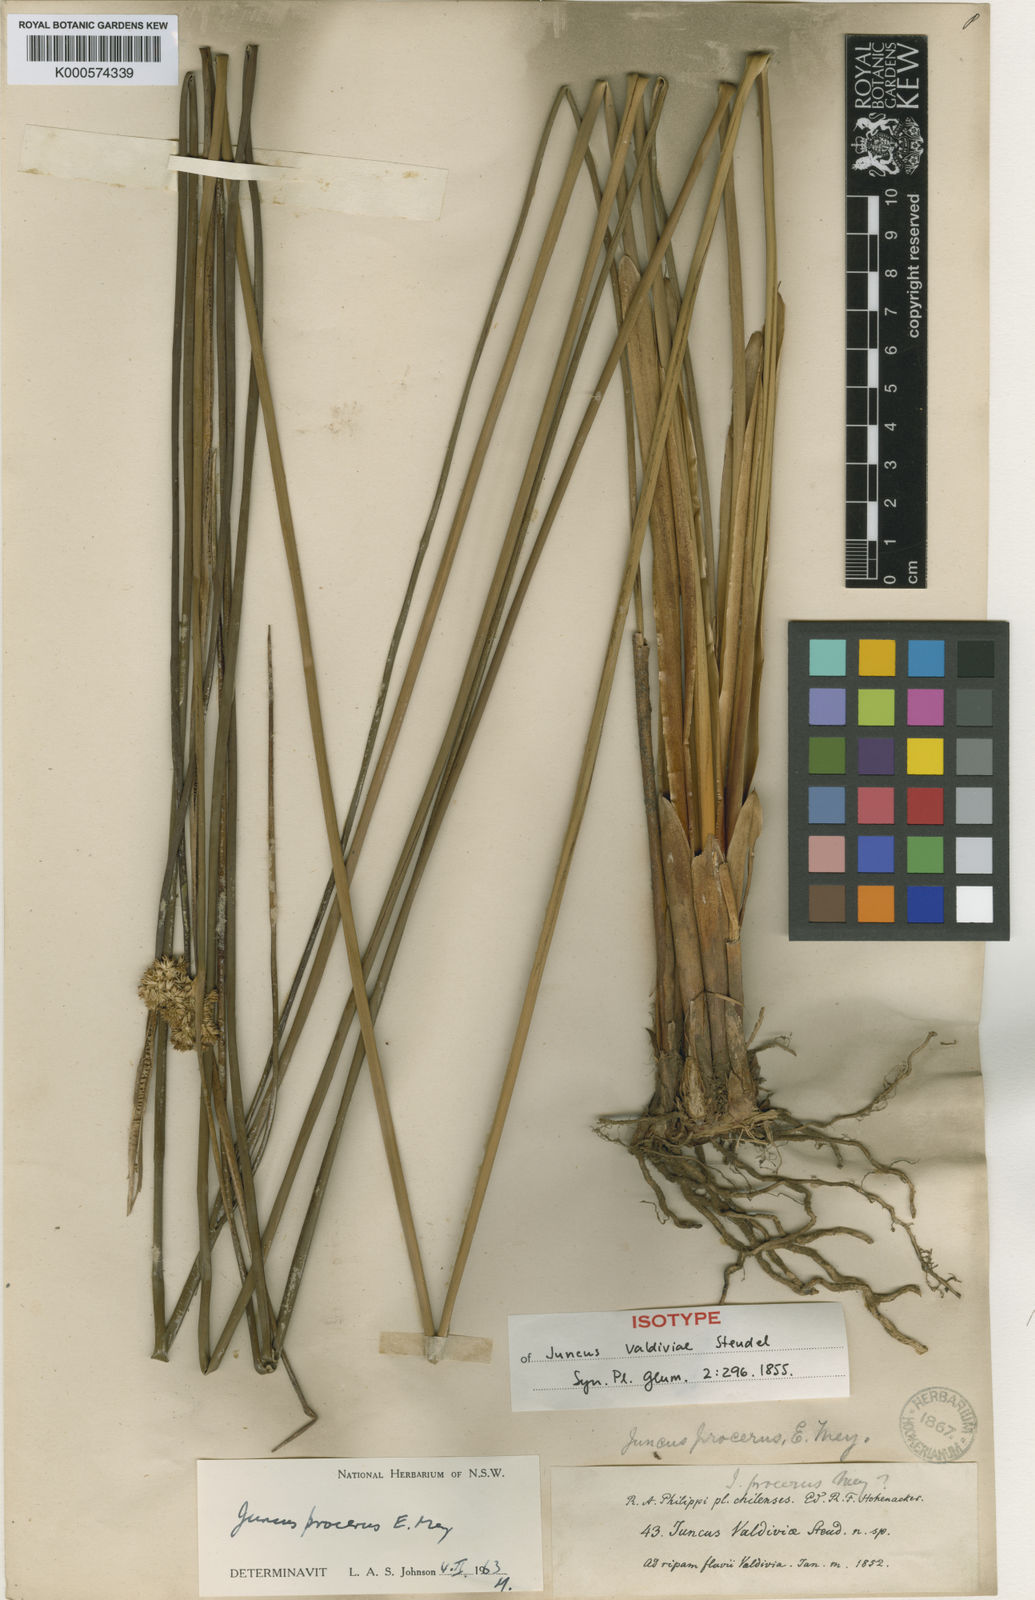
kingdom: Plantae
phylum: Tracheophyta
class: Liliopsida
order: Poales
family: Juncaceae
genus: Juncus
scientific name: Juncus procerus
